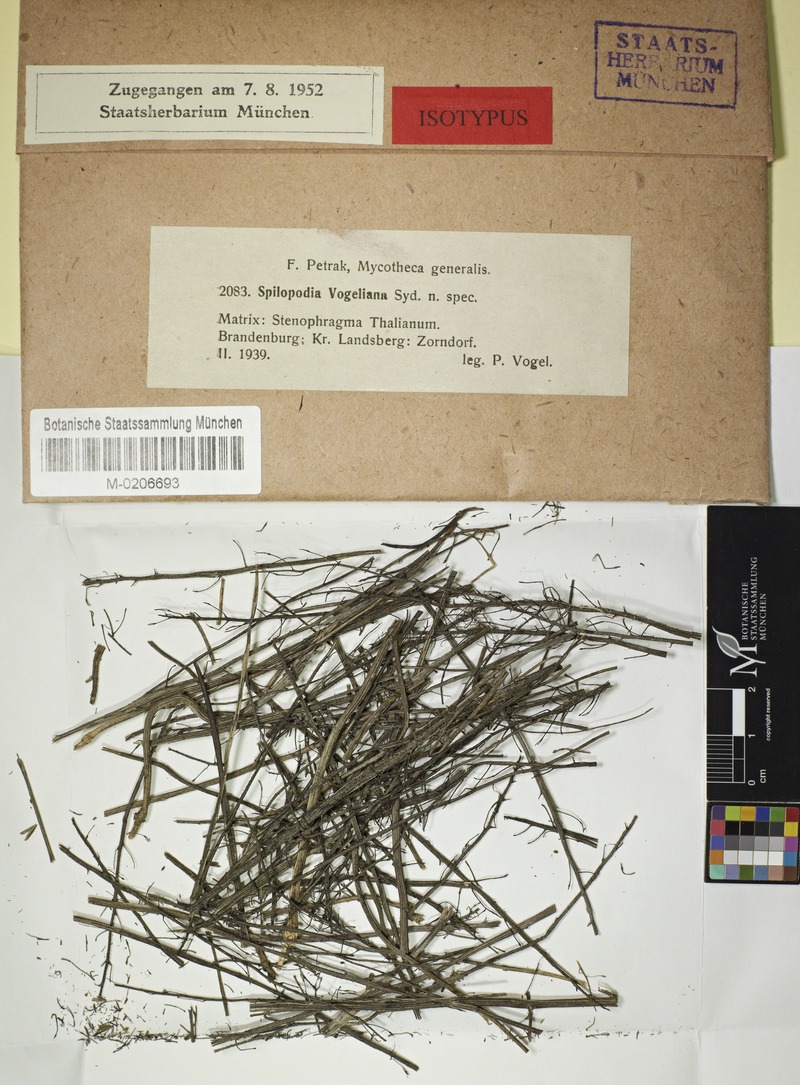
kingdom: Fungi
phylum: Ascomycota
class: Leotiomycetes
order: Helotiales
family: Drepanopezizaceae
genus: Spilopodia
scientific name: Spilopodia vogelii
